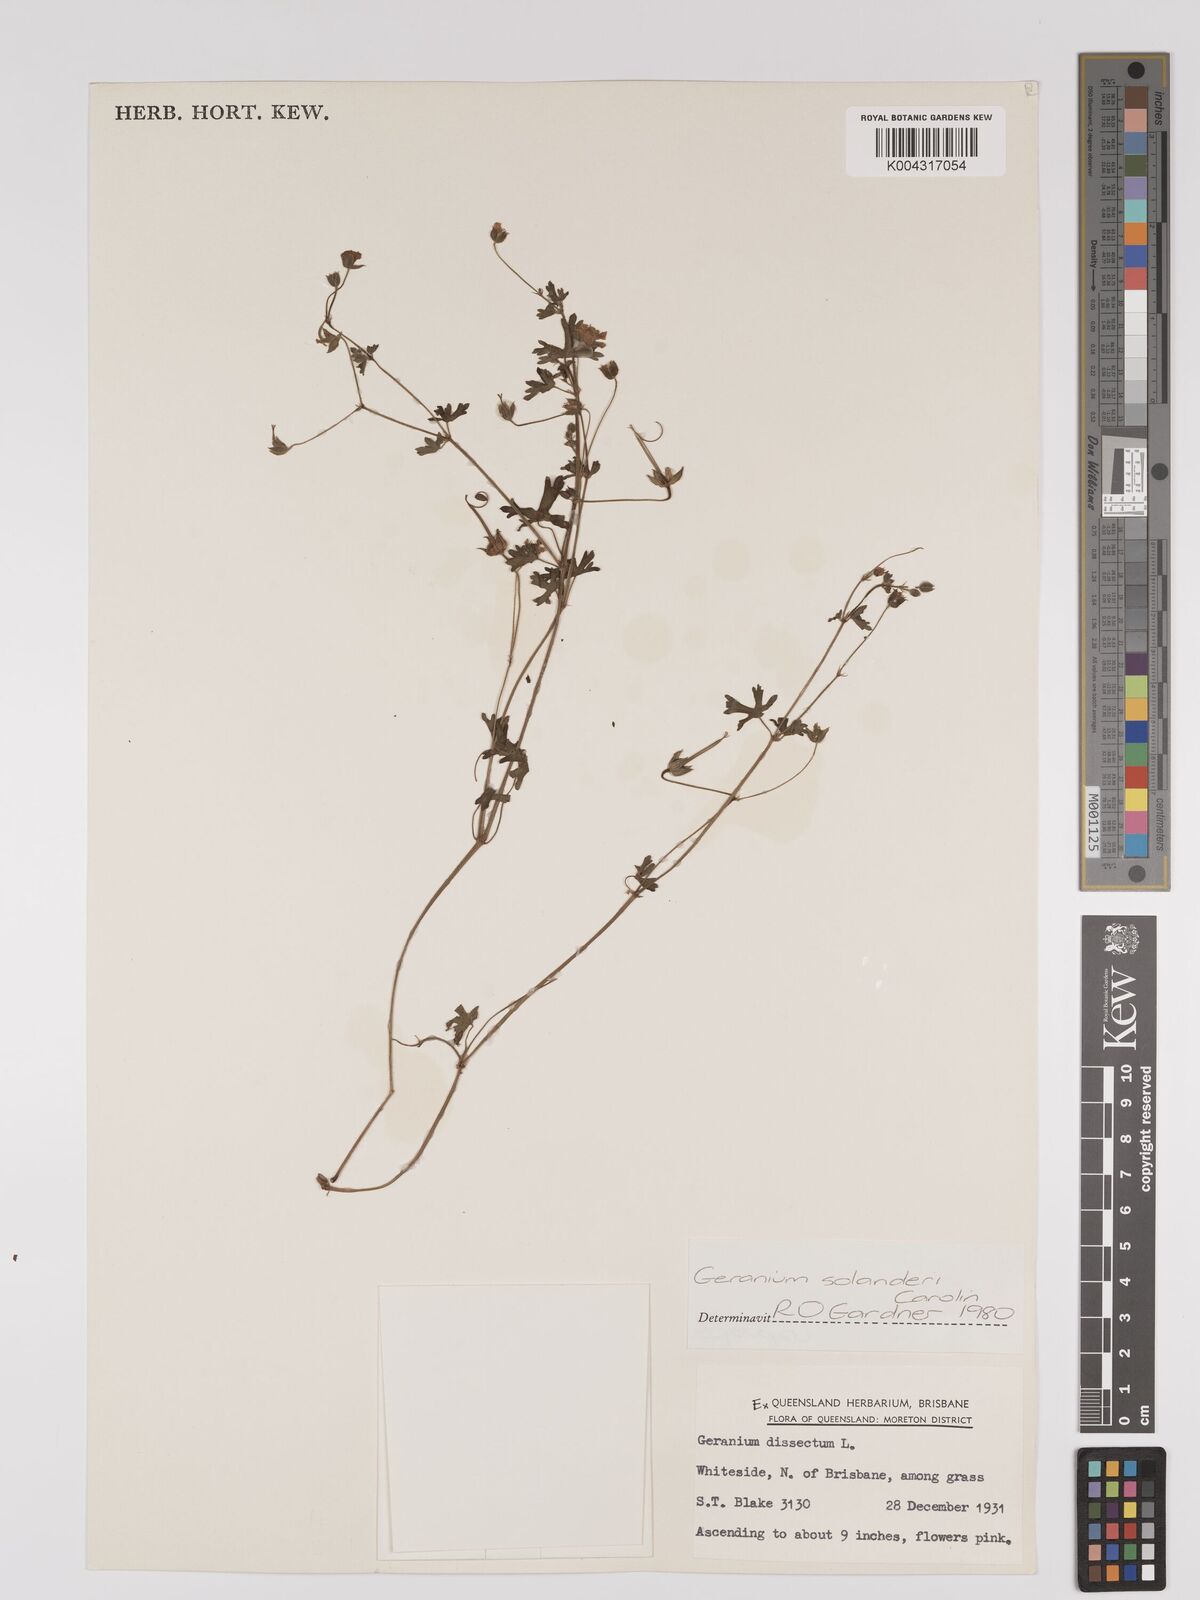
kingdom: Plantae
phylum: Tracheophyta
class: Magnoliopsida
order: Geraniales
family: Geraniaceae
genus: Geranium
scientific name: Geranium solanderi
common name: Solander's geranium
